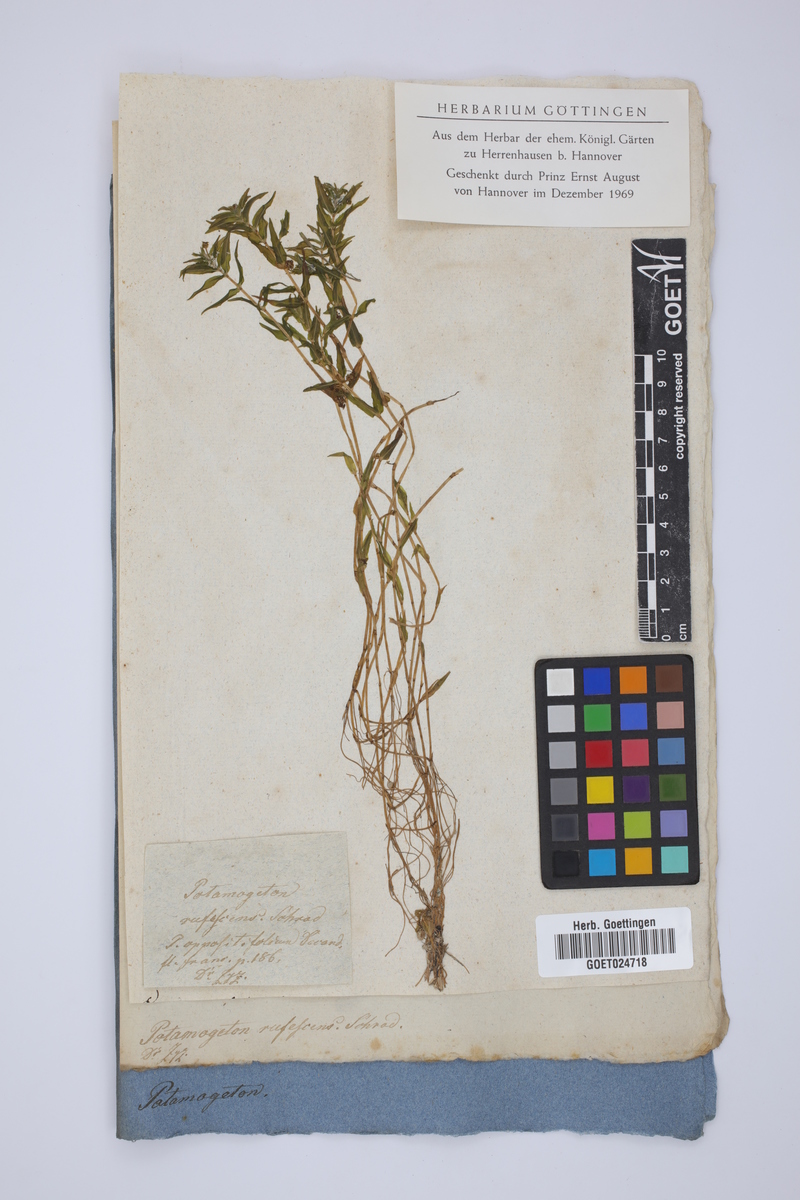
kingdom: Plantae
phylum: Tracheophyta
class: Liliopsida
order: Alismatales
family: Potamogetonaceae
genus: Potamogeton
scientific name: Potamogeton alpinus
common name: Red pondweed
